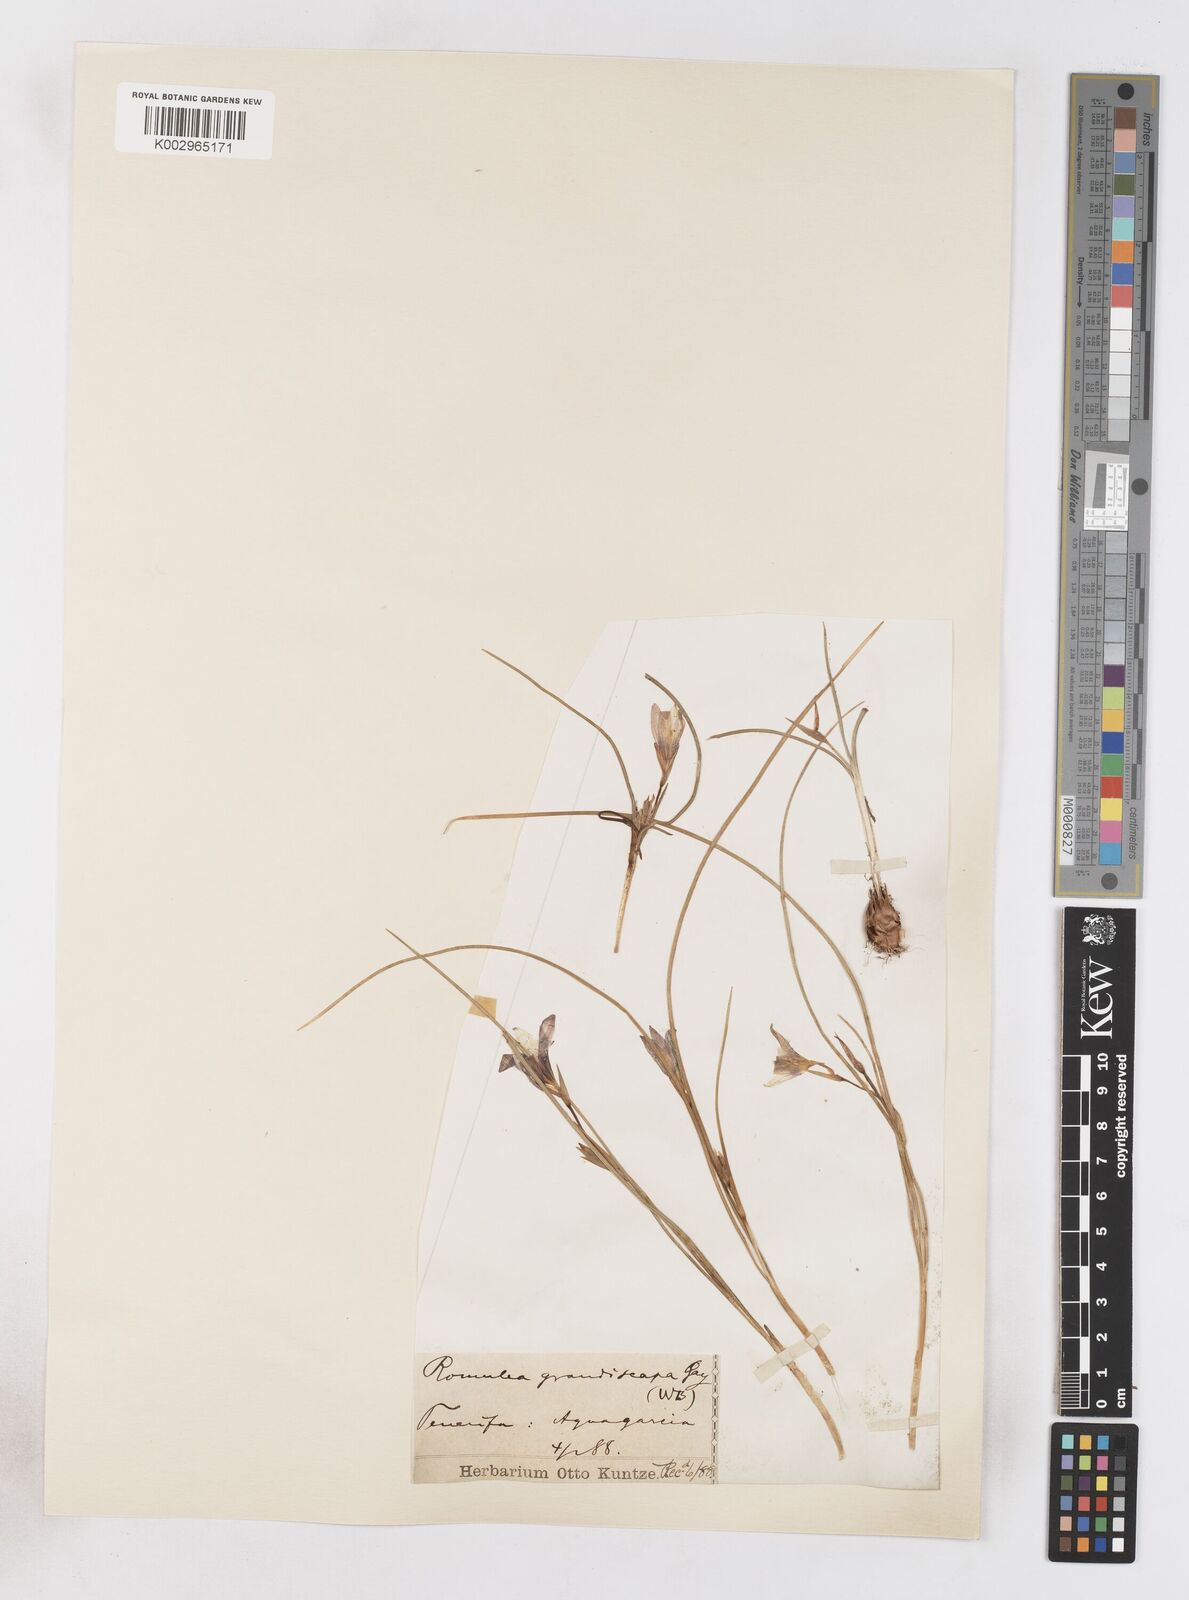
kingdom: Plantae
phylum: Tracheophyta
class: Liliopsida
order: Asparagales
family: Iridaceae
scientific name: Iridaceae
